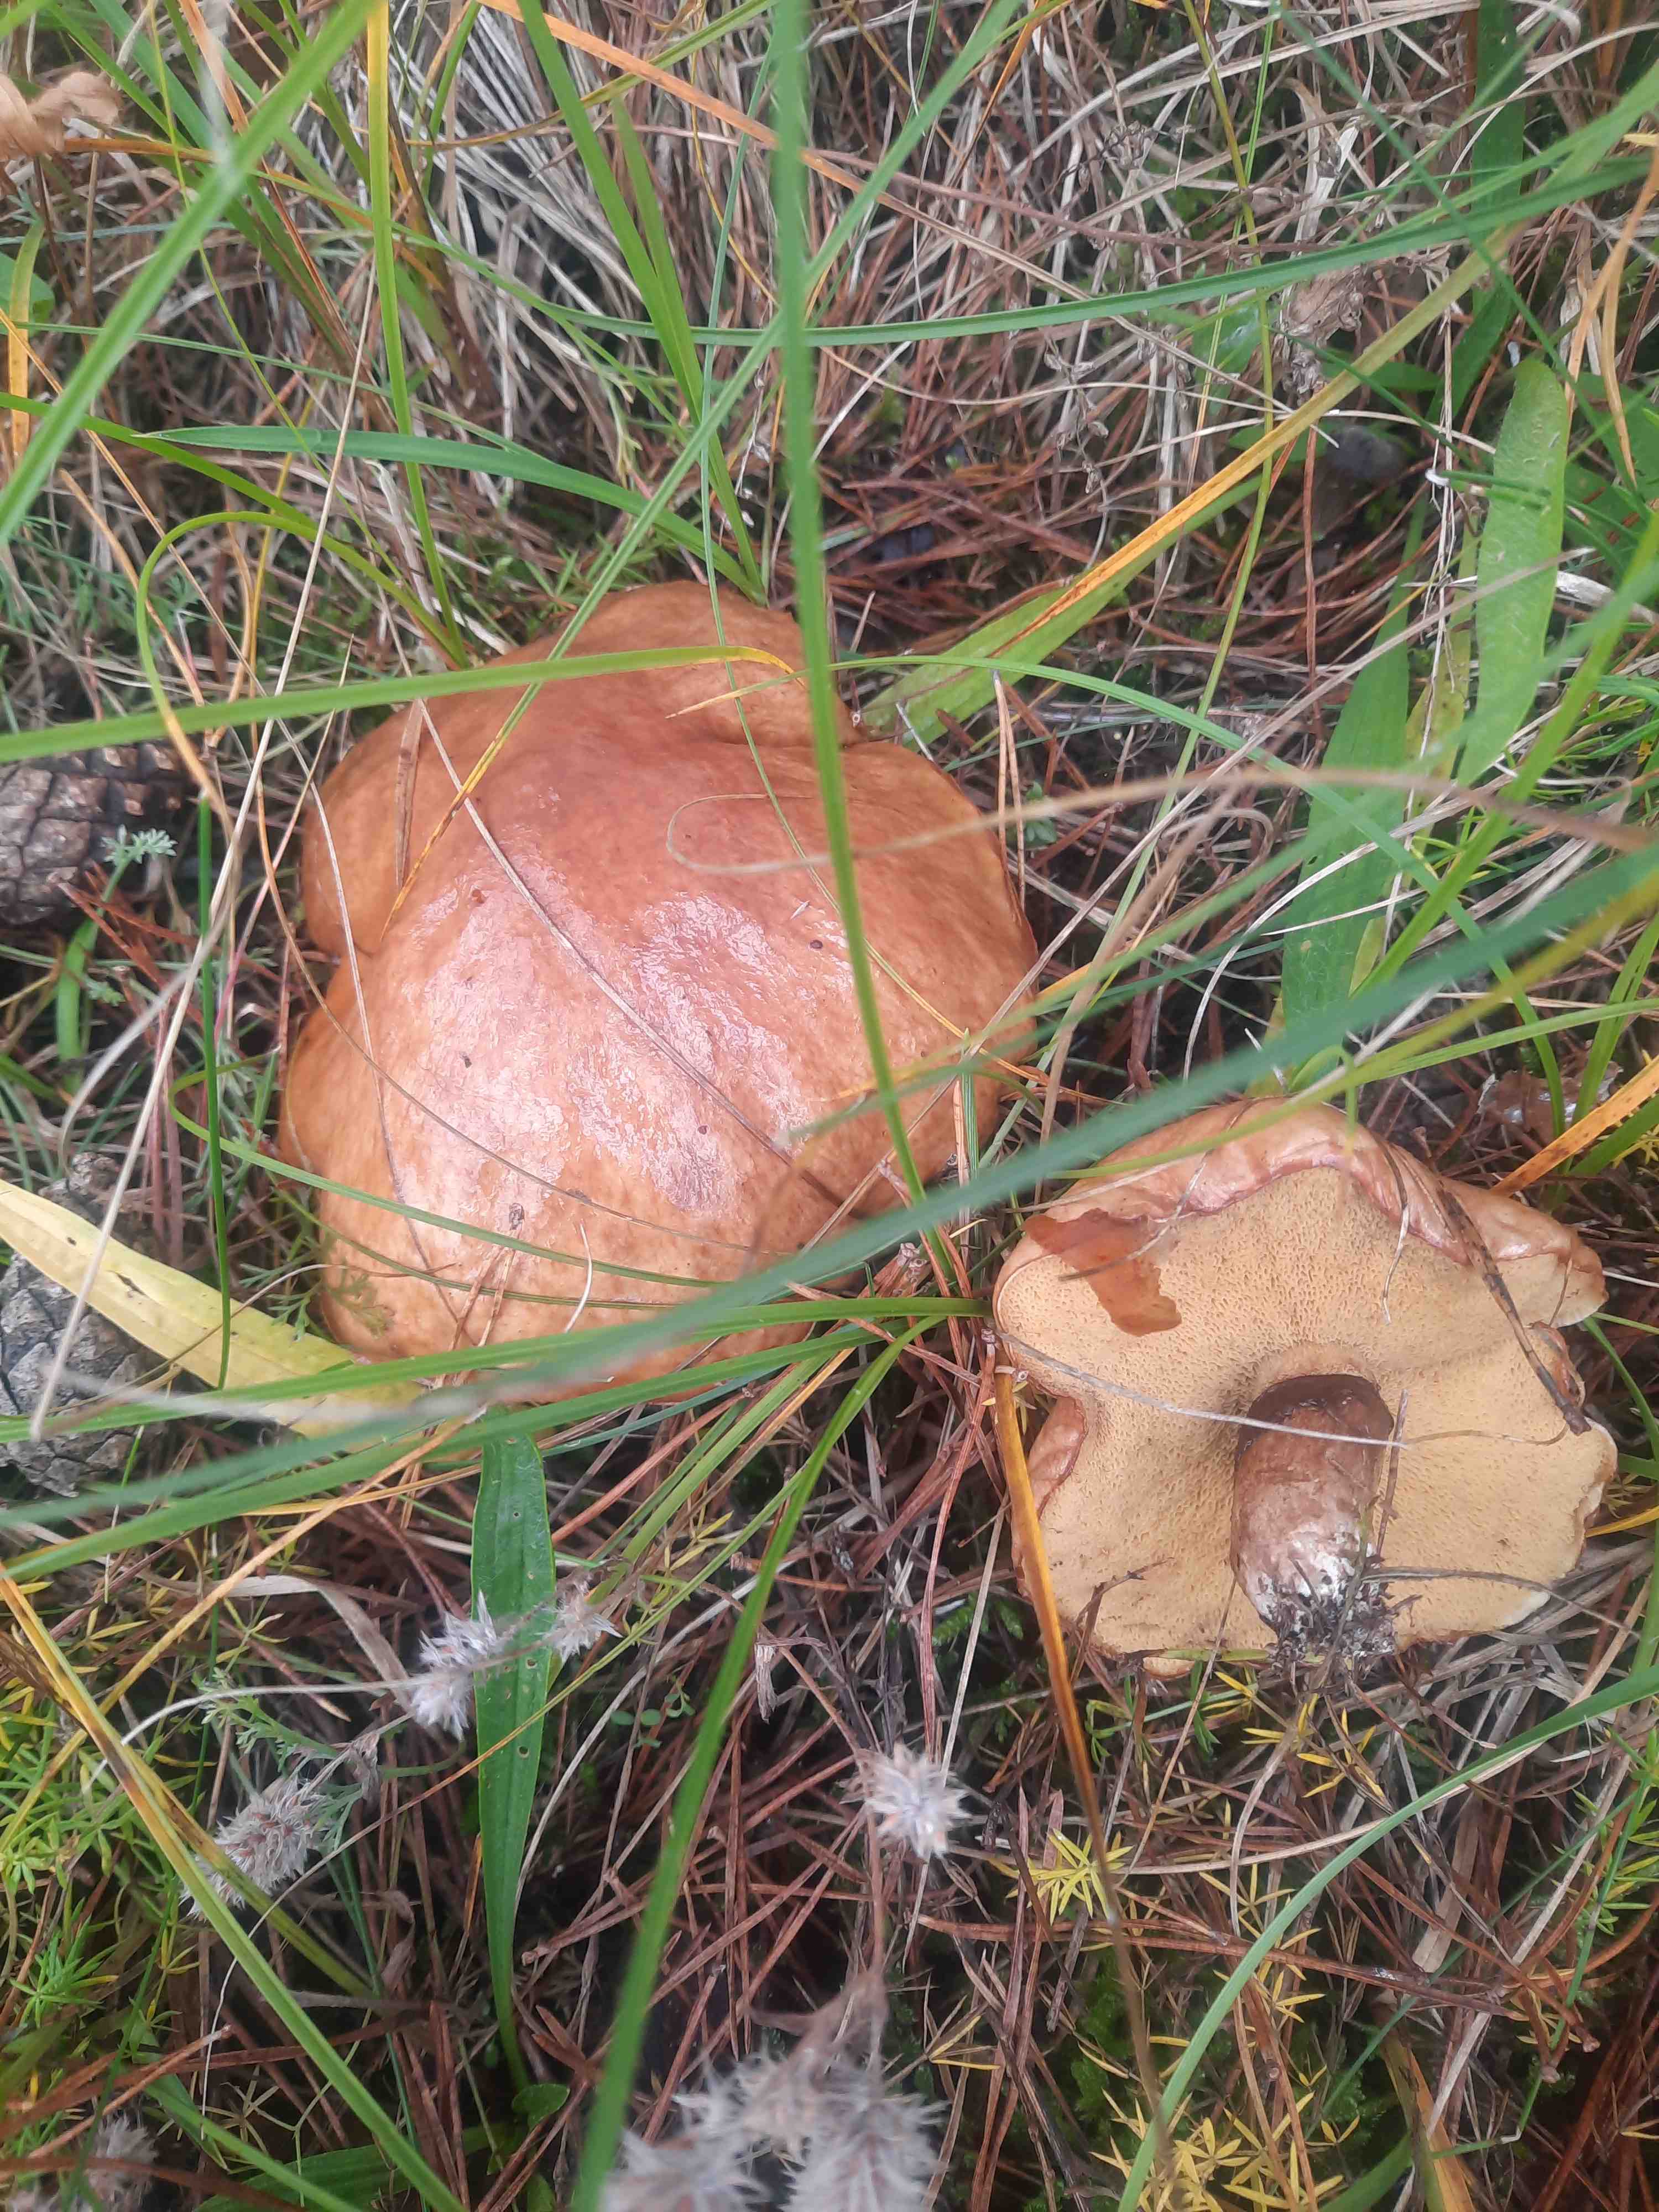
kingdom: Fungi
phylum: Basidiomycota
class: Agaricomycetes
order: Boletales
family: Suillaceae
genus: Suillus
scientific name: Suillus luteus
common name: brungul slimrørhat
